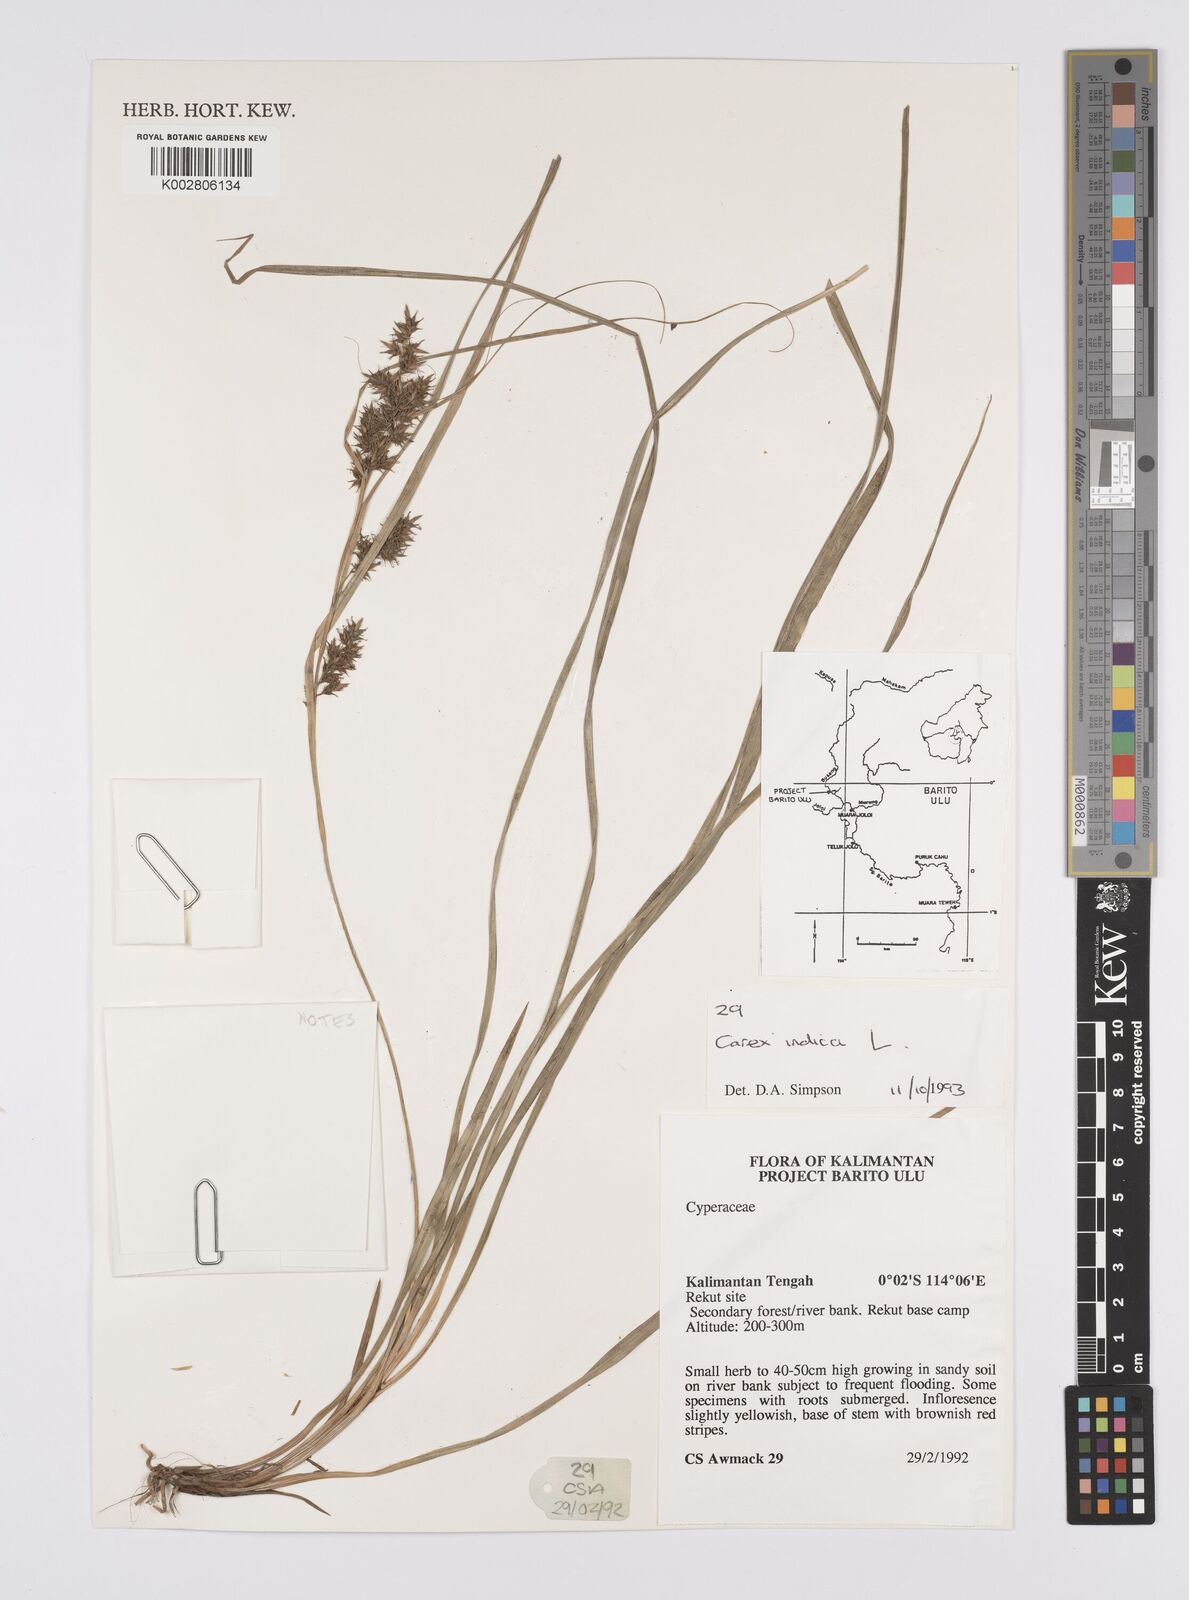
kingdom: Plantae
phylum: Tracheophyta
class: Liliopsida
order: Poales
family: Cyperaceae
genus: Carex
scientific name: Carex indica
